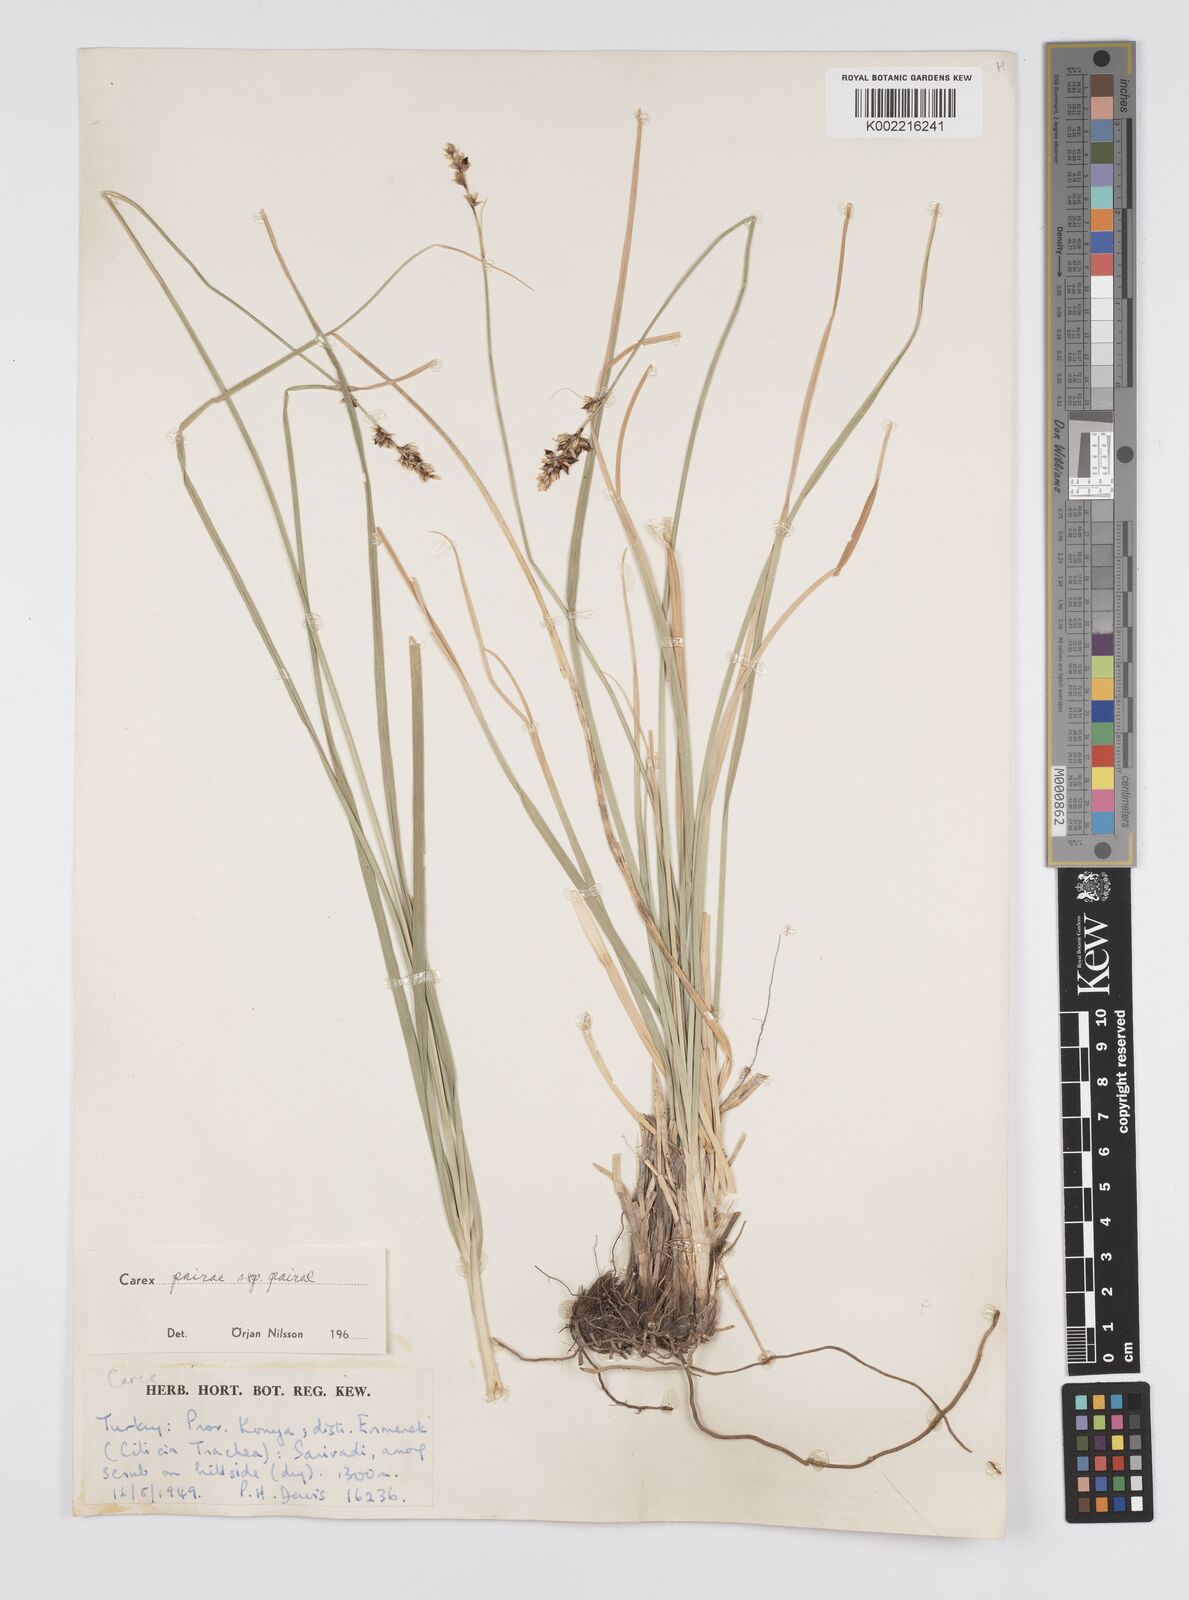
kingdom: Plantae
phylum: Tracheophyta
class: Liliopsida
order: Poales
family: Cyperaceae
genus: Carex
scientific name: Carex muricata
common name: Rough sedge
